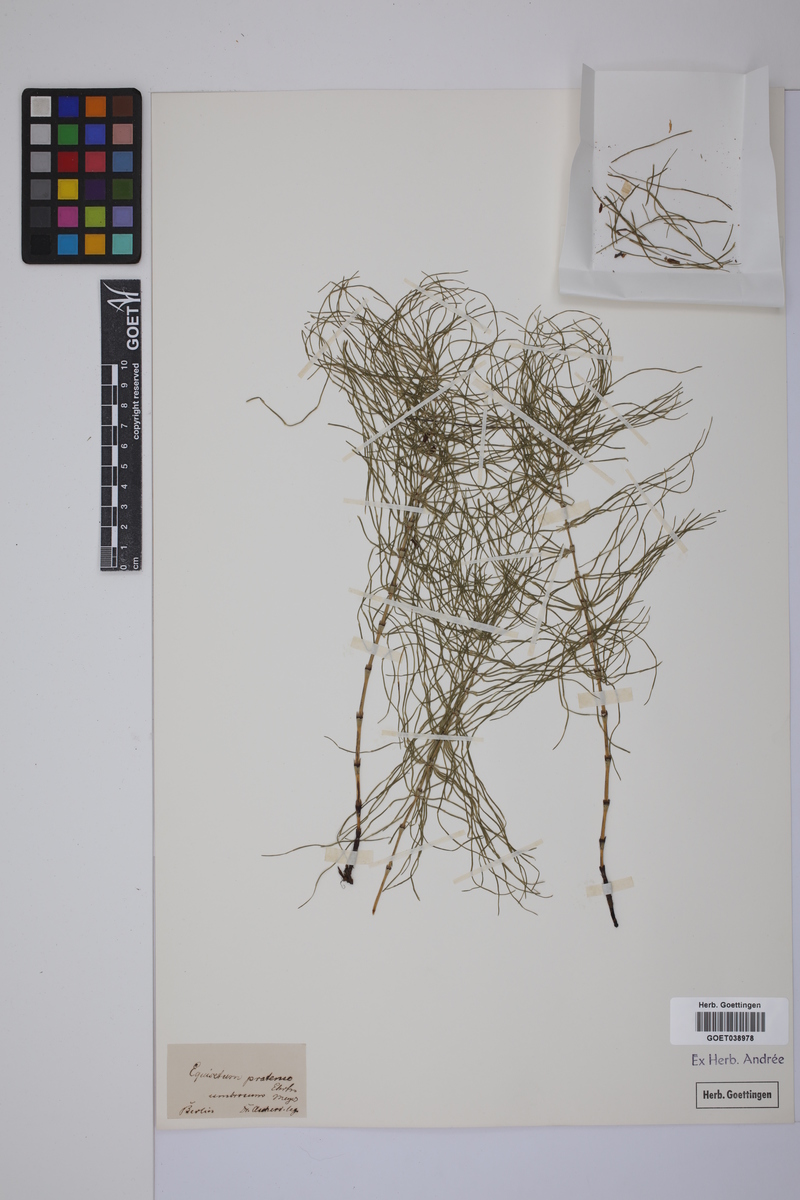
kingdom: Plantae
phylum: Tracheophyta
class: Polypodiopsida
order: Equisetales
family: Equisetaceae
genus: Equisetum
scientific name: Equisetum pratense
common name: Meadow horsetail
